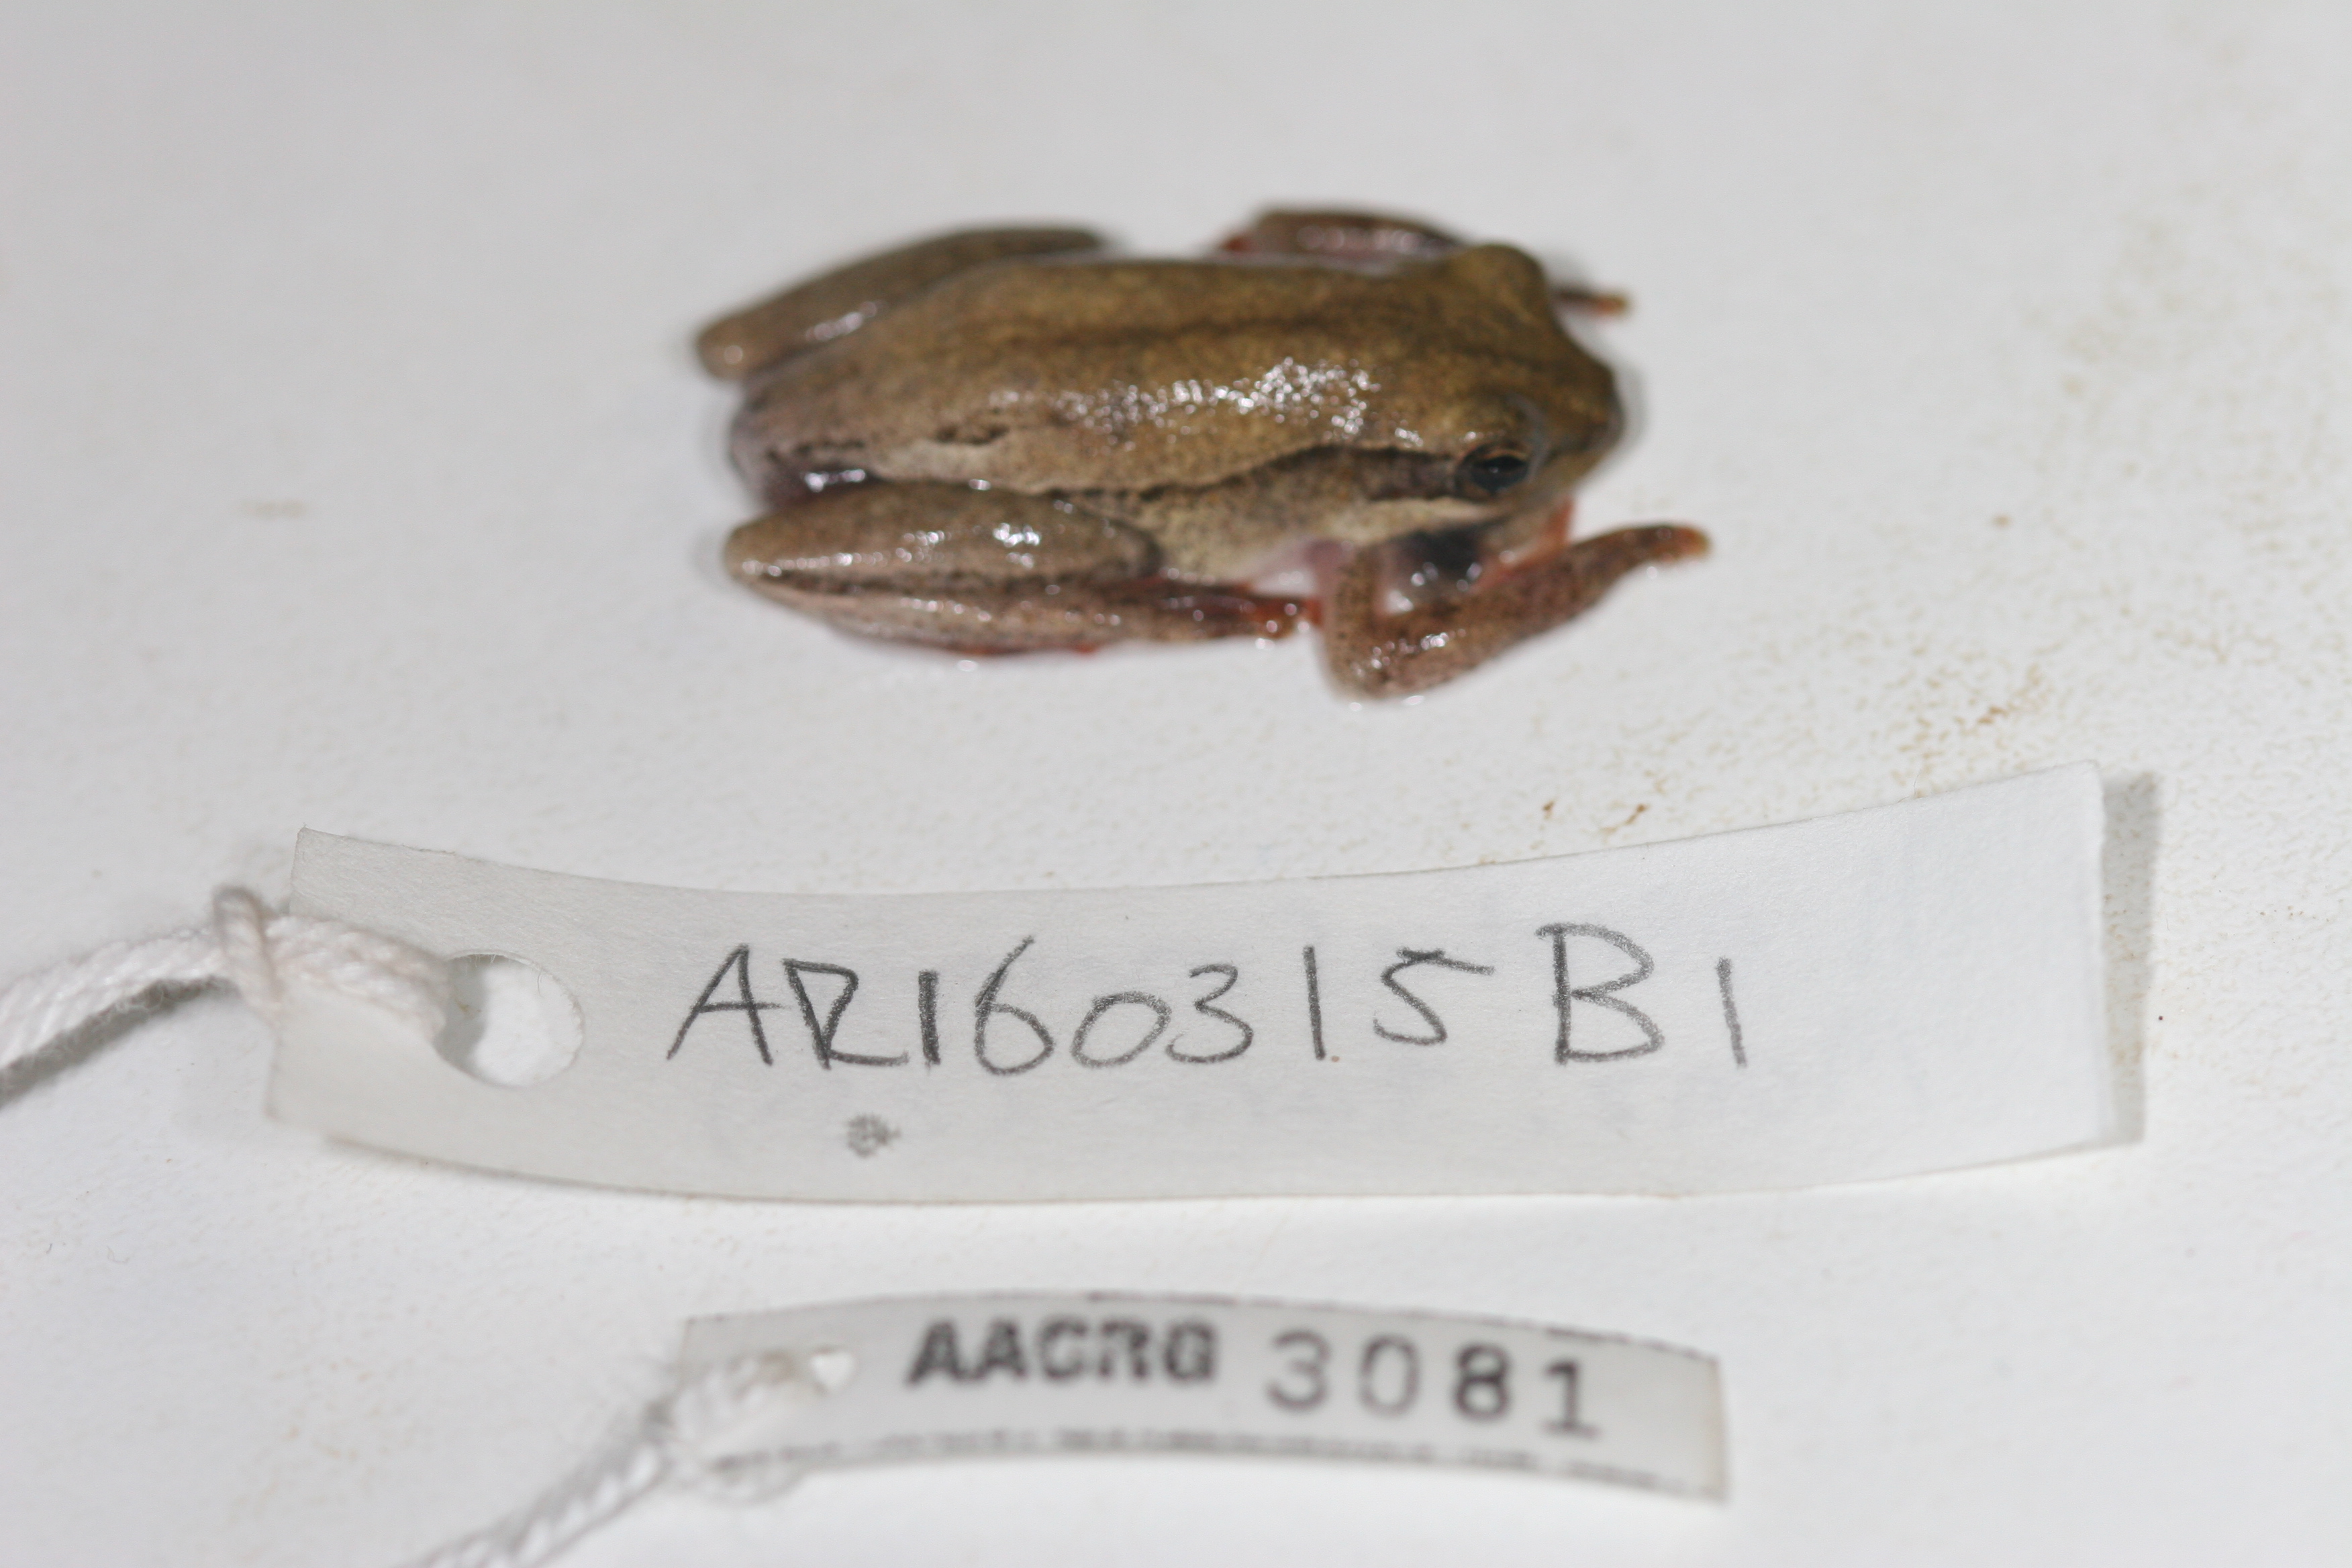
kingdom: Animalia
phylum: Chordata
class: Amphibia
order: Anura
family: Hyperoliidae
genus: Hyperolius
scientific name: Hyperolius marmoratus
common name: Painted reed frog
